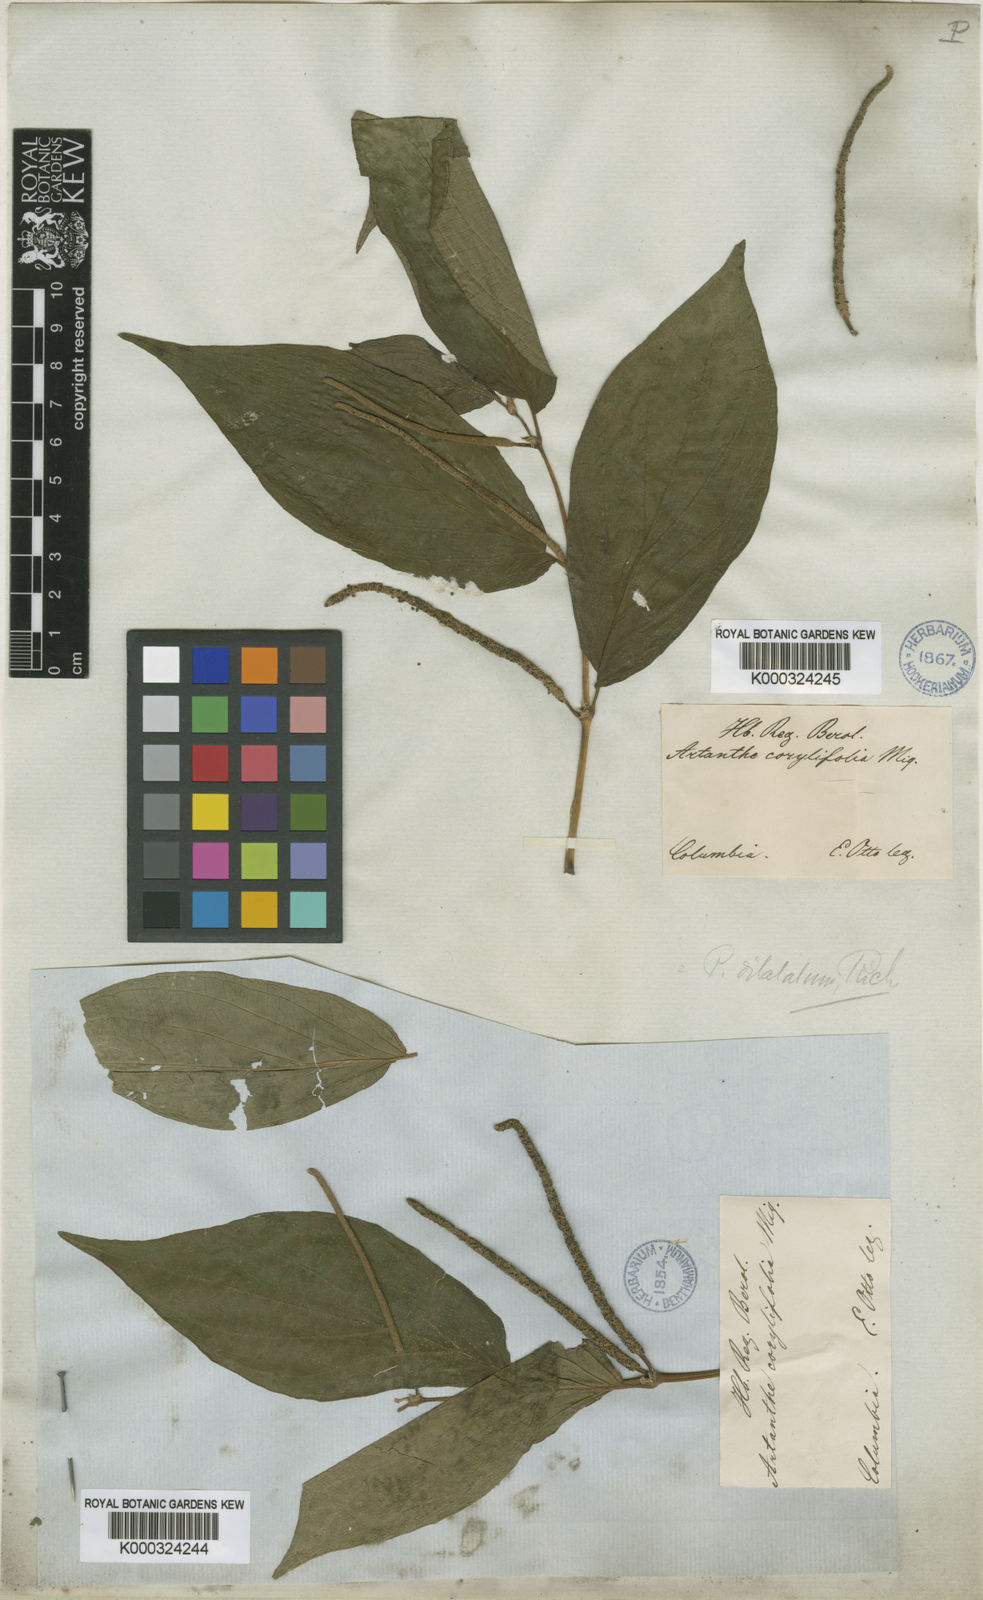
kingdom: Plantae
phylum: Tracheophyta
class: Magnoliopsida
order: Piperales
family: Piperaceae
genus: Piper
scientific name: Piper dilatatum
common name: Higuillo
